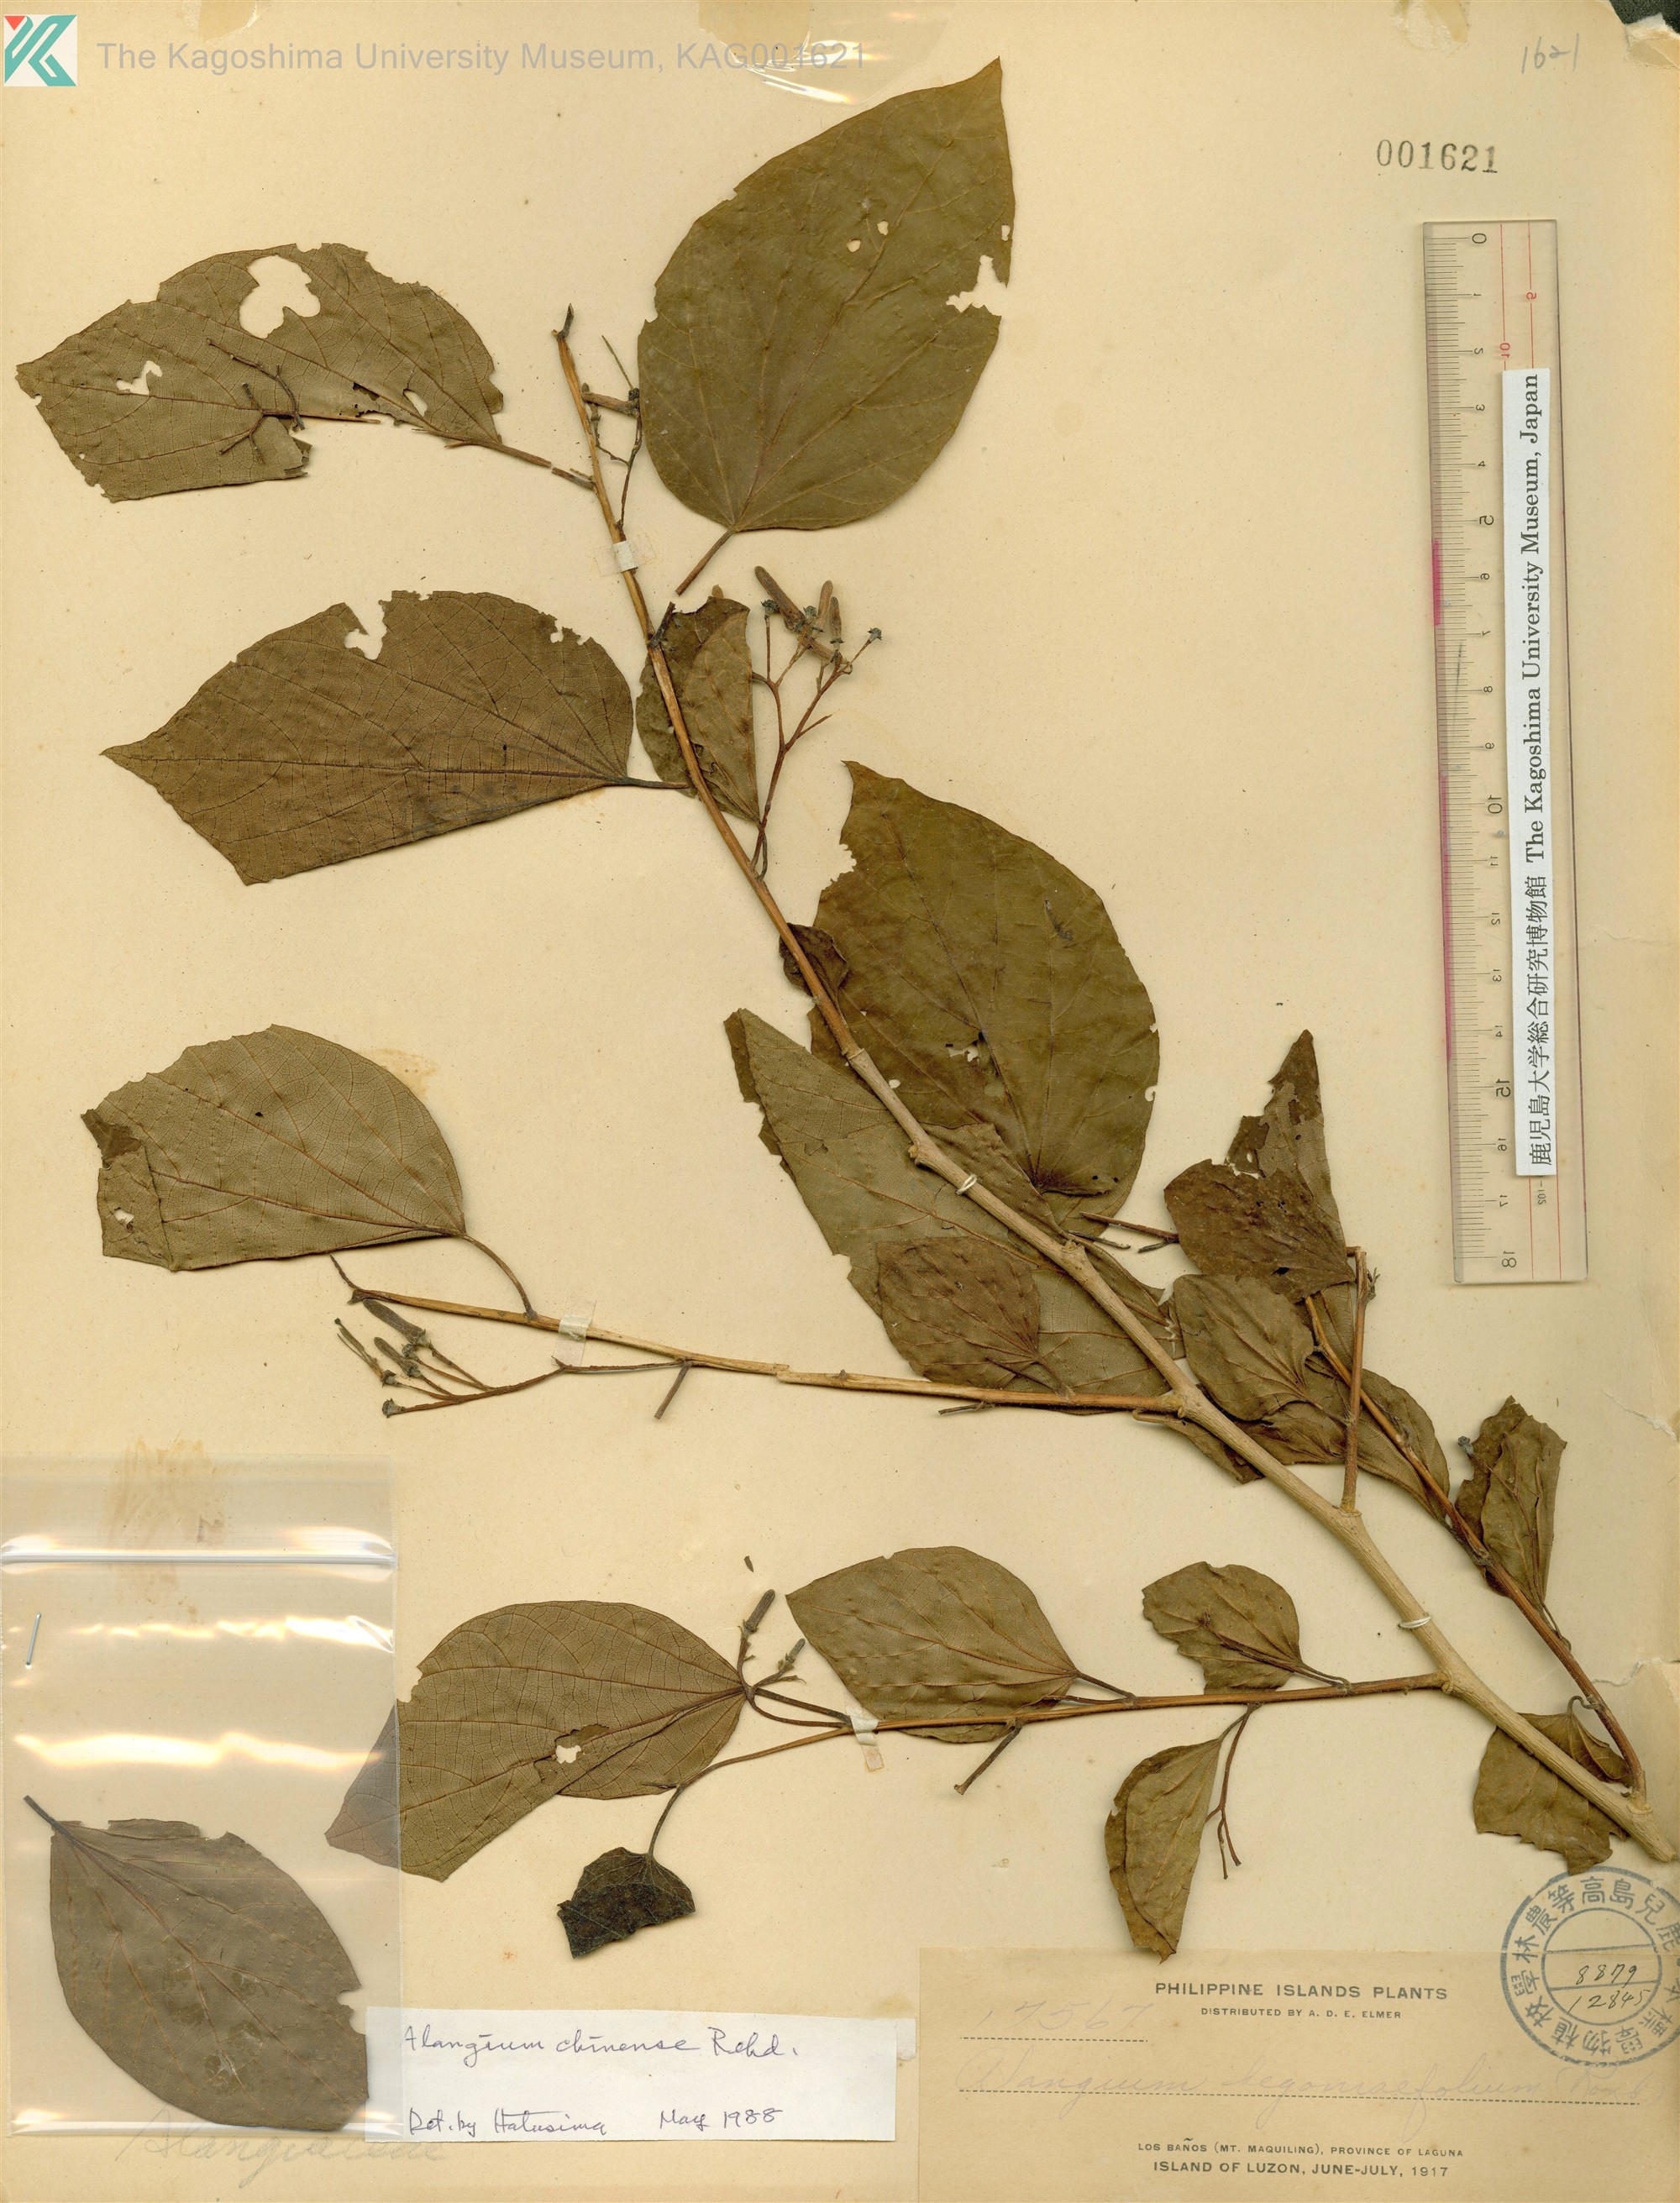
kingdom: Plantae
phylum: Tracheophyta
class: Magnoliopsida
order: Cornales
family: Cornaceae
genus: Alangium
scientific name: Alangium chinense
